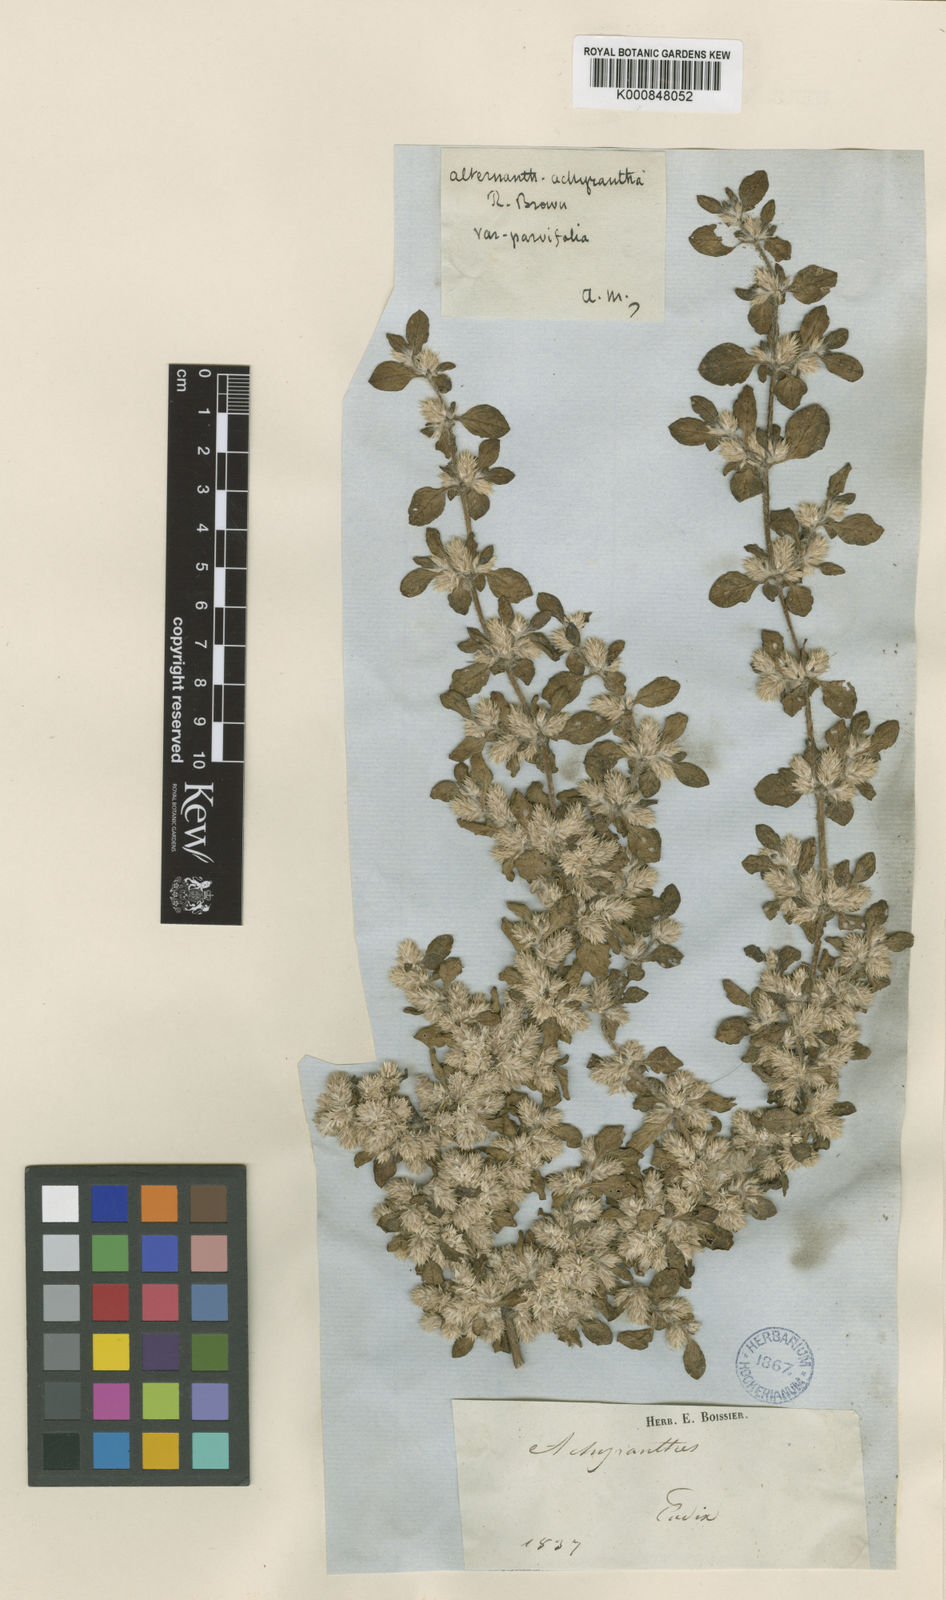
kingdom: Plantae
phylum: Tracheophyta
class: Magnoliopsida
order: Caryophyllales
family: Amaranthaceae
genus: Alternanthera
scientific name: Alternanthera
